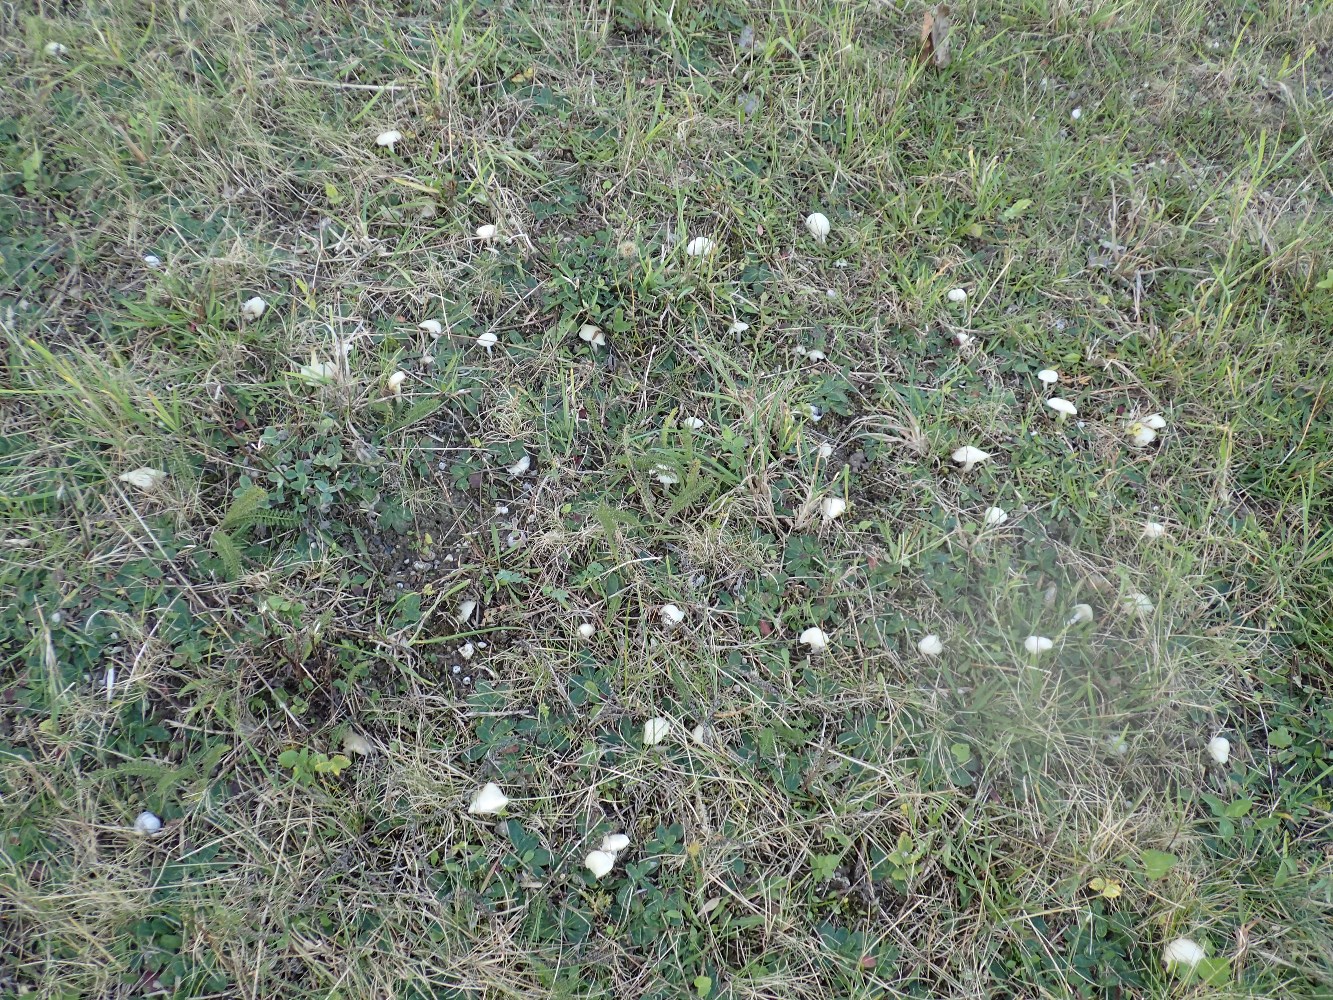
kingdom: Fungi
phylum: Basidiomycota
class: Agaricomycetes
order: Agaricales
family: Hygrophoraceae
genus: Cuphophyllus
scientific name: Cuphophyllus virgineus
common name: snehvid vokshat
